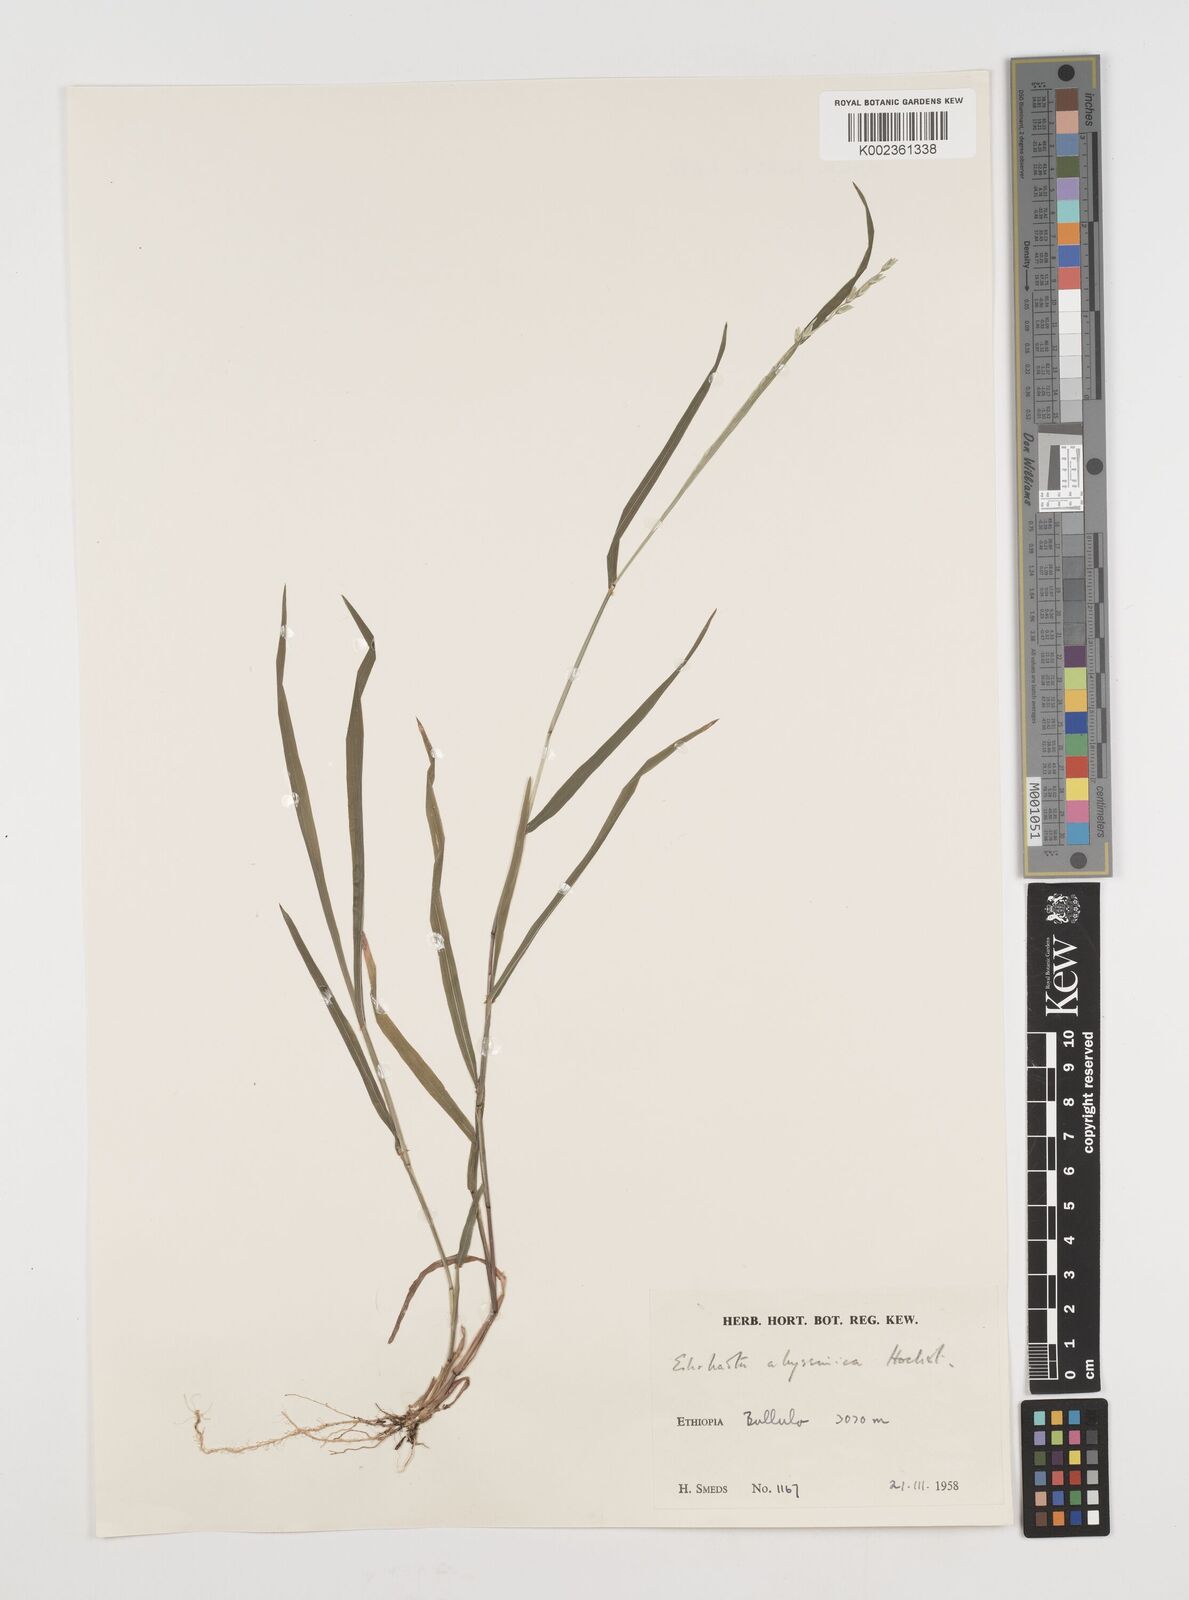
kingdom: Plantae
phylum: Tracheophyta
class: Liliopsida
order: Poales
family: Poaceae
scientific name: Poaceae
